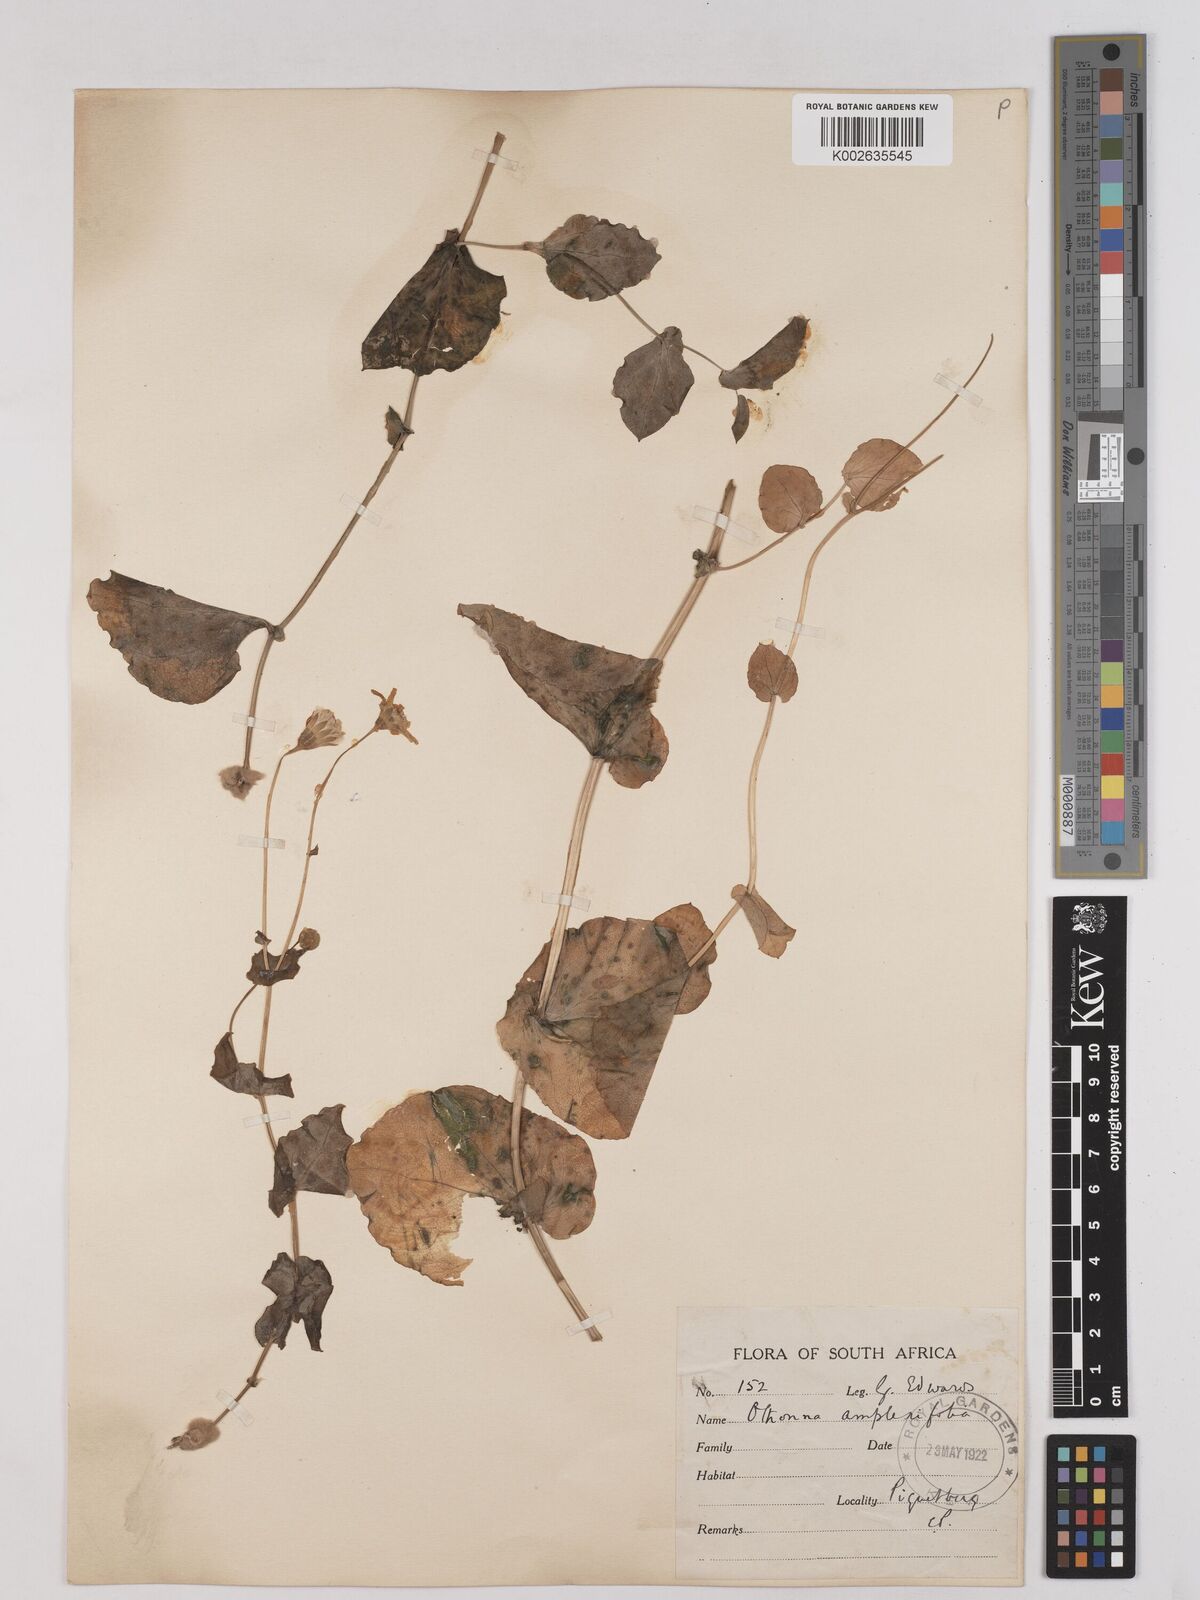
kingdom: Plantae
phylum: Tracheophyta
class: Magnoliopsida
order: Asterales
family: Asteraceae
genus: Othonna
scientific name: Othonna amplexifolia
